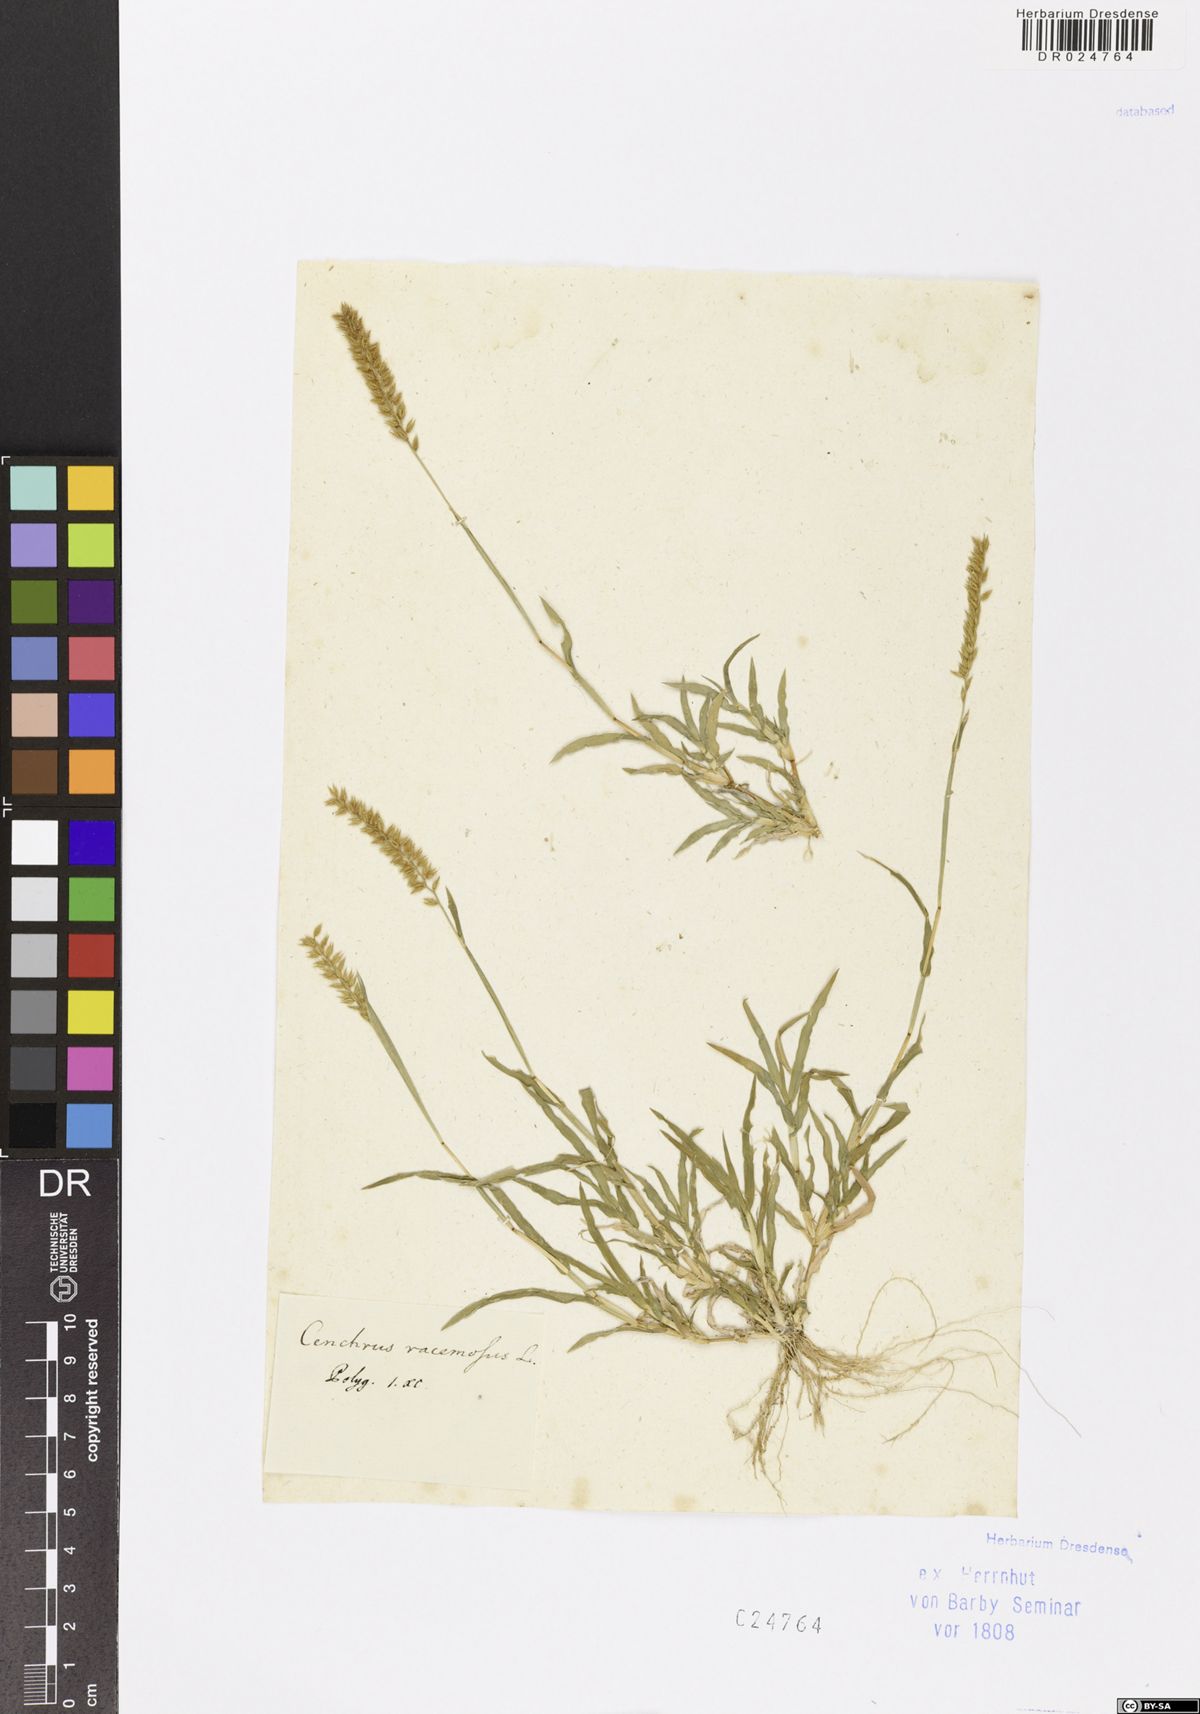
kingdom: Plantae
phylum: Tracheophyta
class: Liliopsida
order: Poales
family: Poaceae
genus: Tragus
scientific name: Tragus racemosus
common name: European bur-grass
